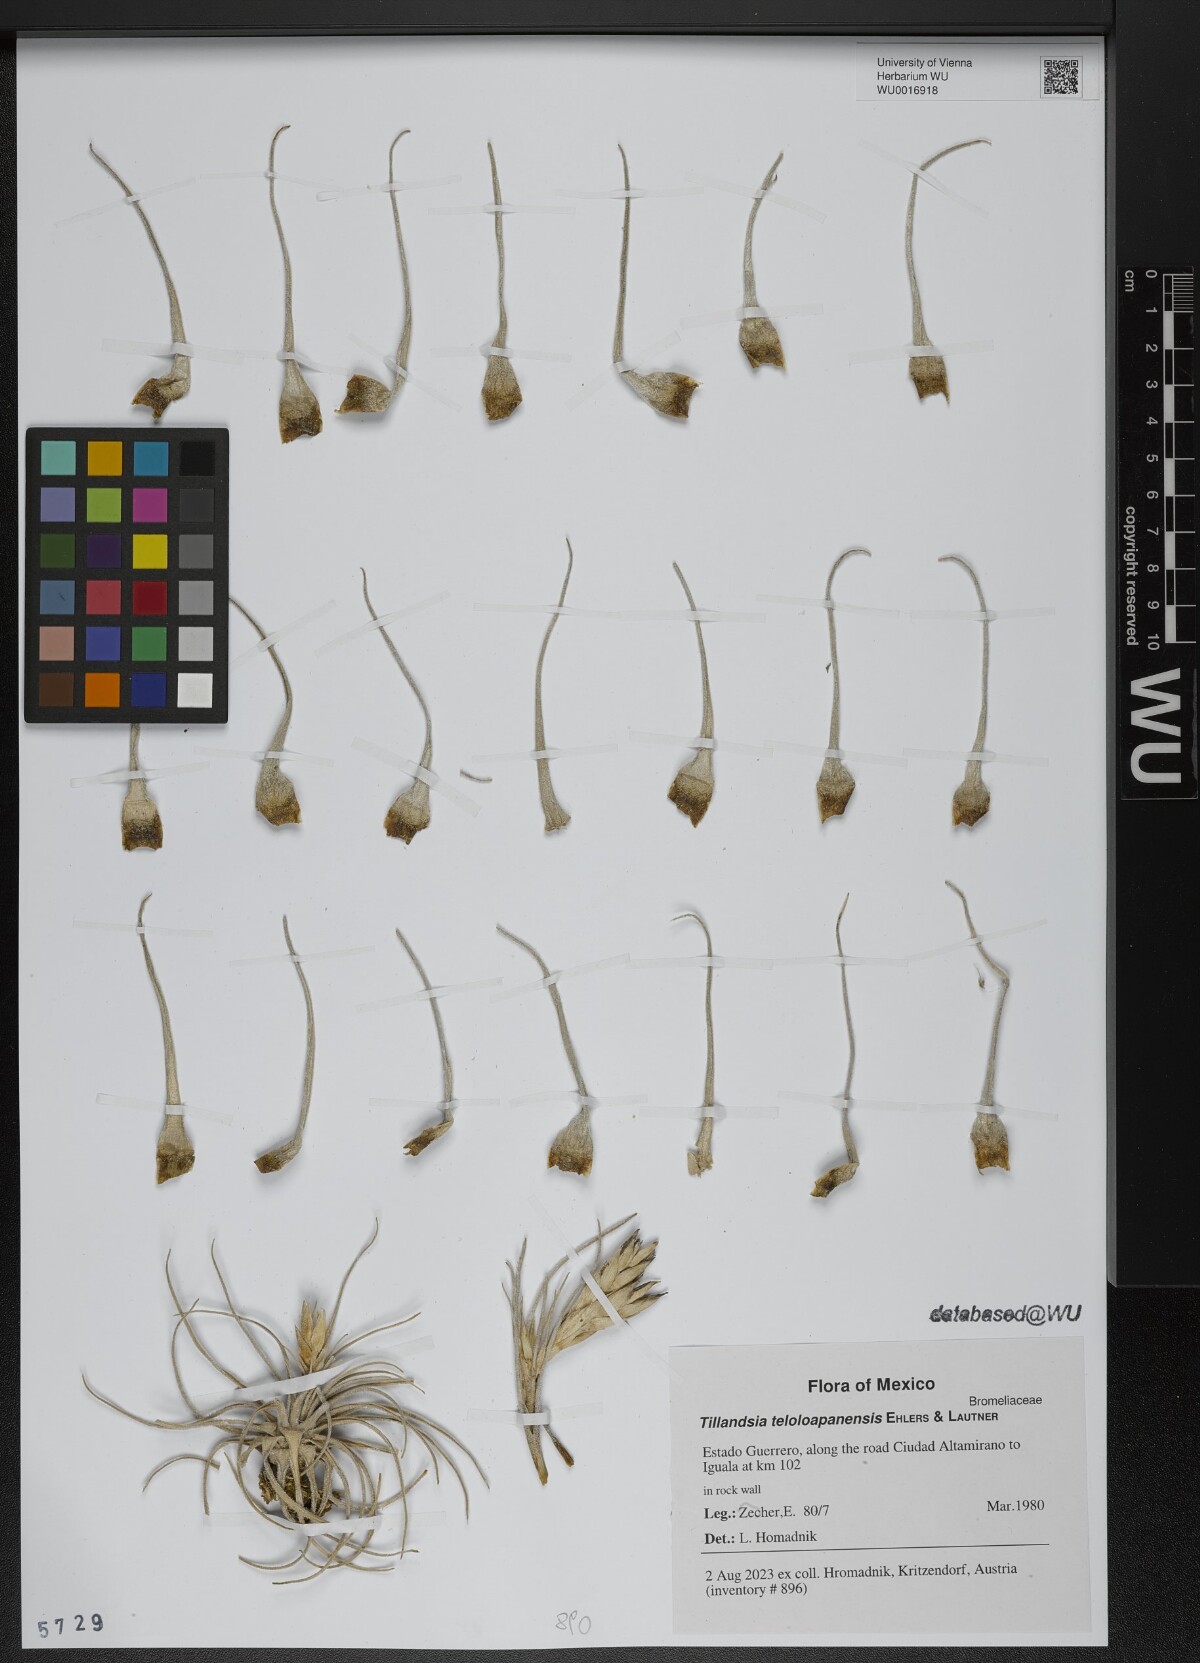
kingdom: Plantae
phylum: Tracheophyta
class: Liliopsida
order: Poales
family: Bromeliaceae
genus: Tillandsia
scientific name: Tillandsia teloloapanensis
